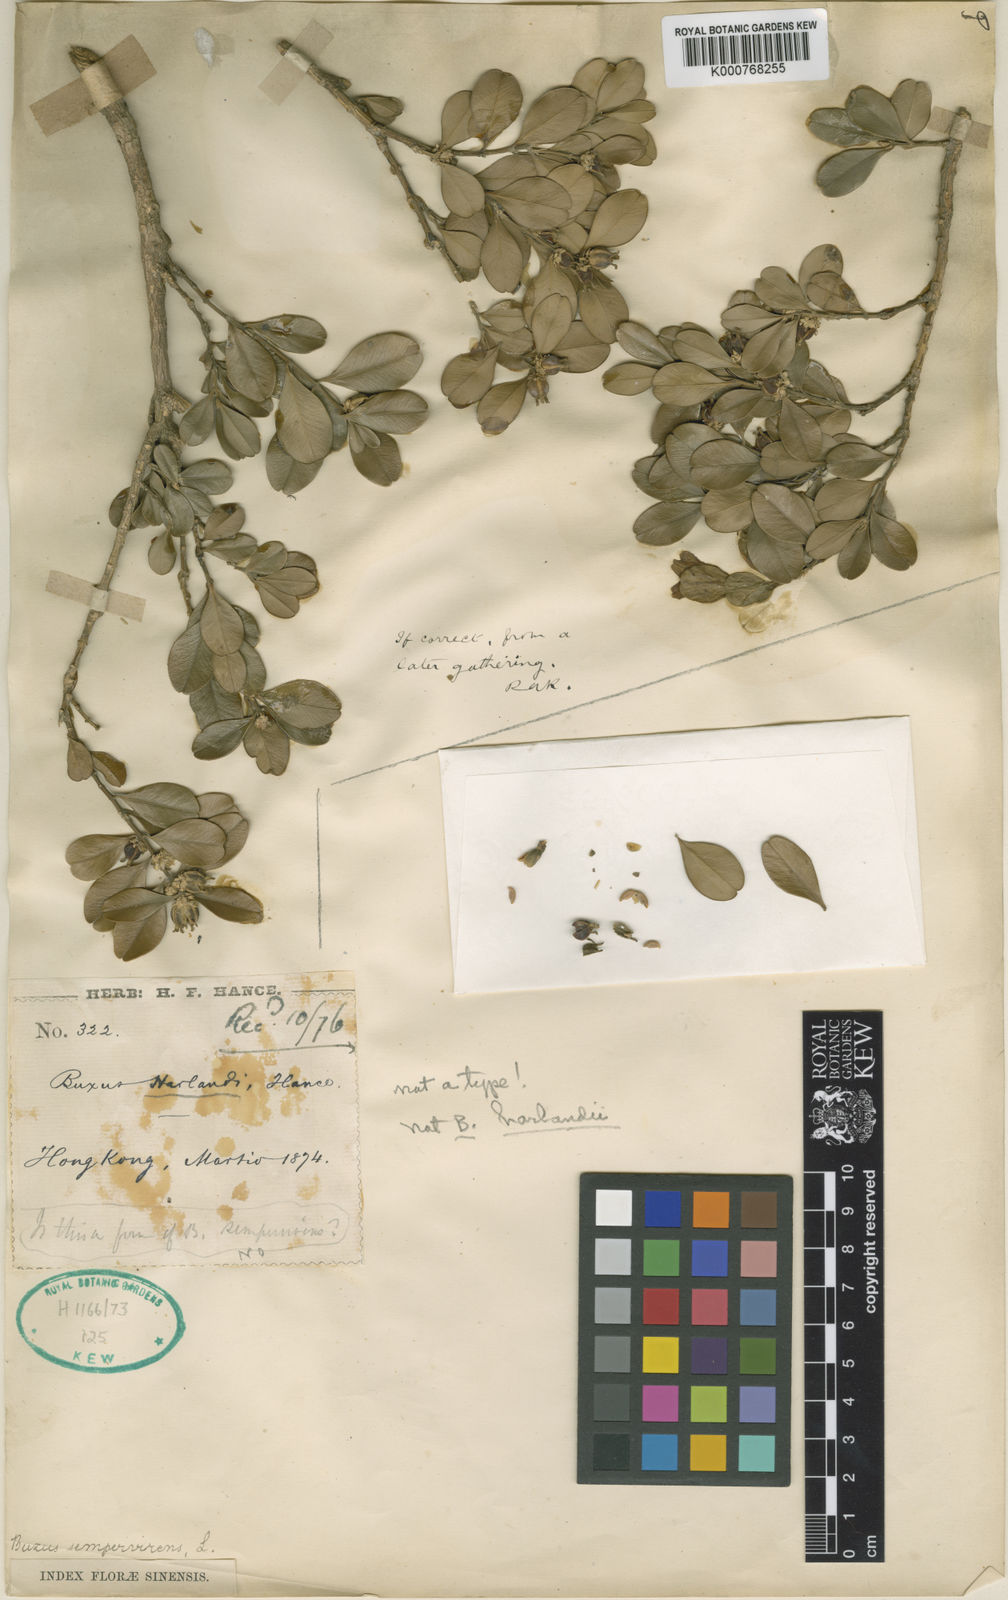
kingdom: Plantae
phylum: Tracheophyta
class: Magnoliopsida
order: Buxales
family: Buxaceae
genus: Buxus
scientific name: Buxus harlandii
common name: Harland's boxwood
